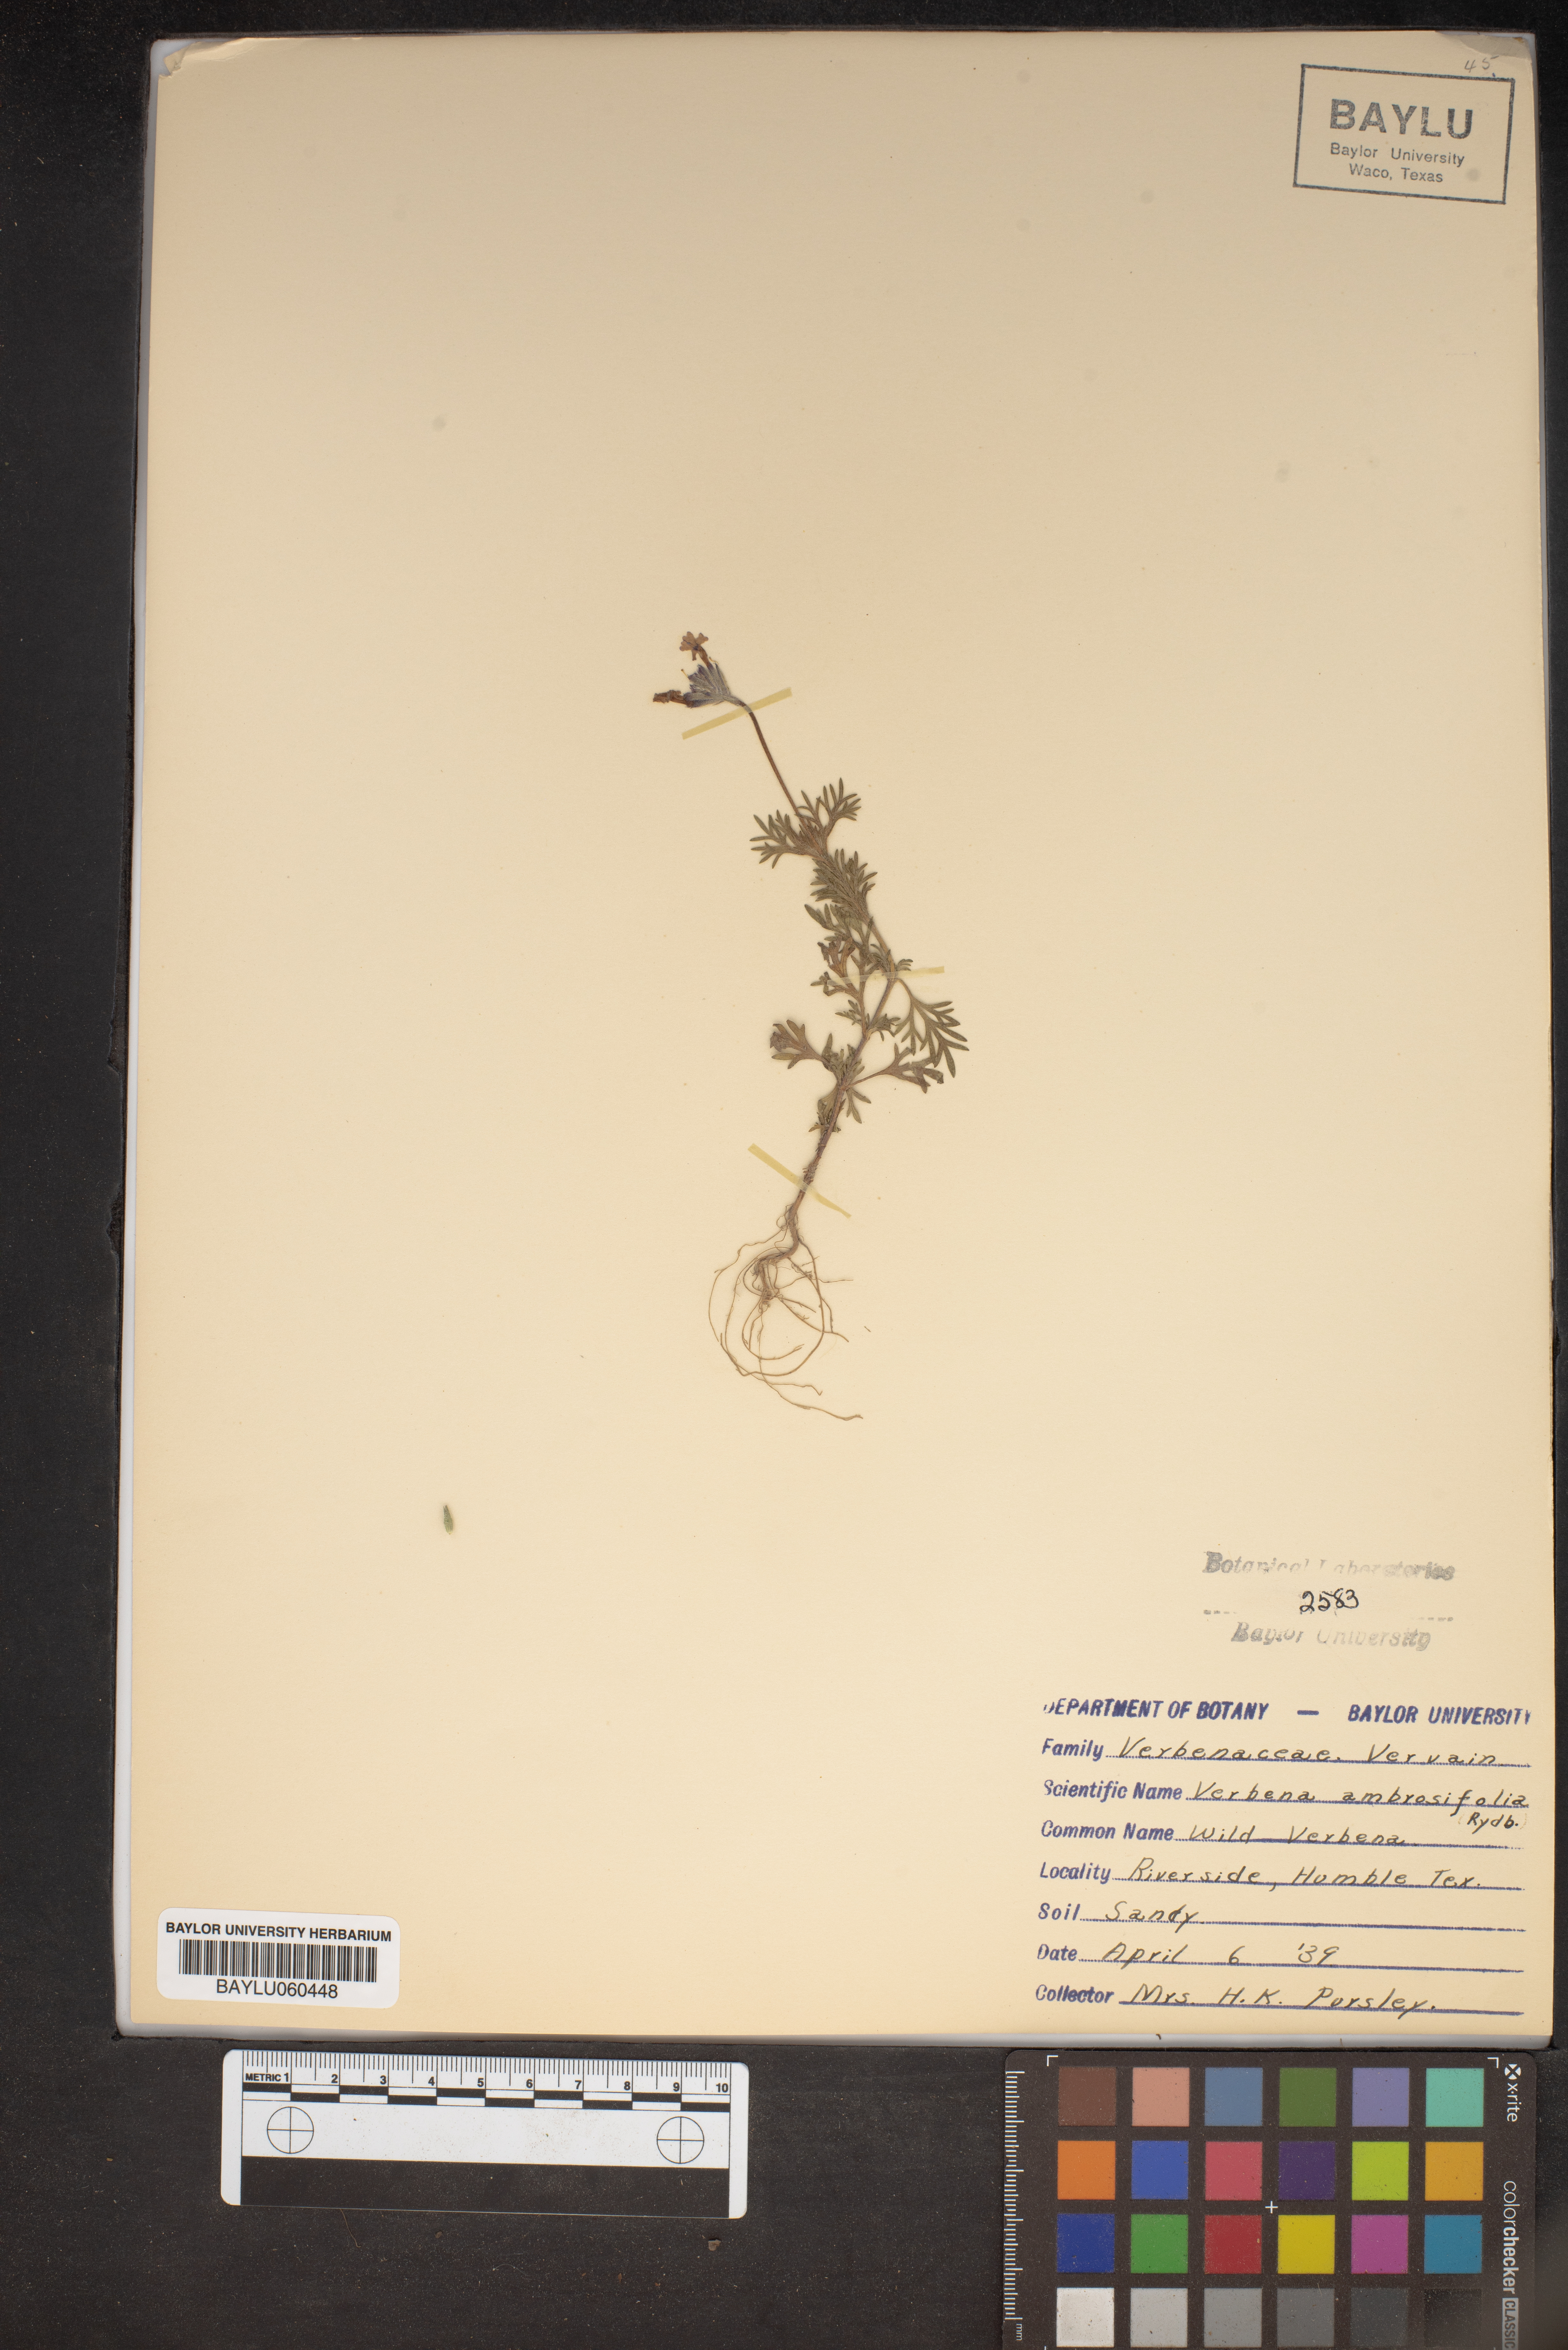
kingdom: Plantae
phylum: Tracheophyta
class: Magnoliopsida
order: Lamiales
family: Verbenaceae
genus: Verbena
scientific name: Verbena bipinnatifida
